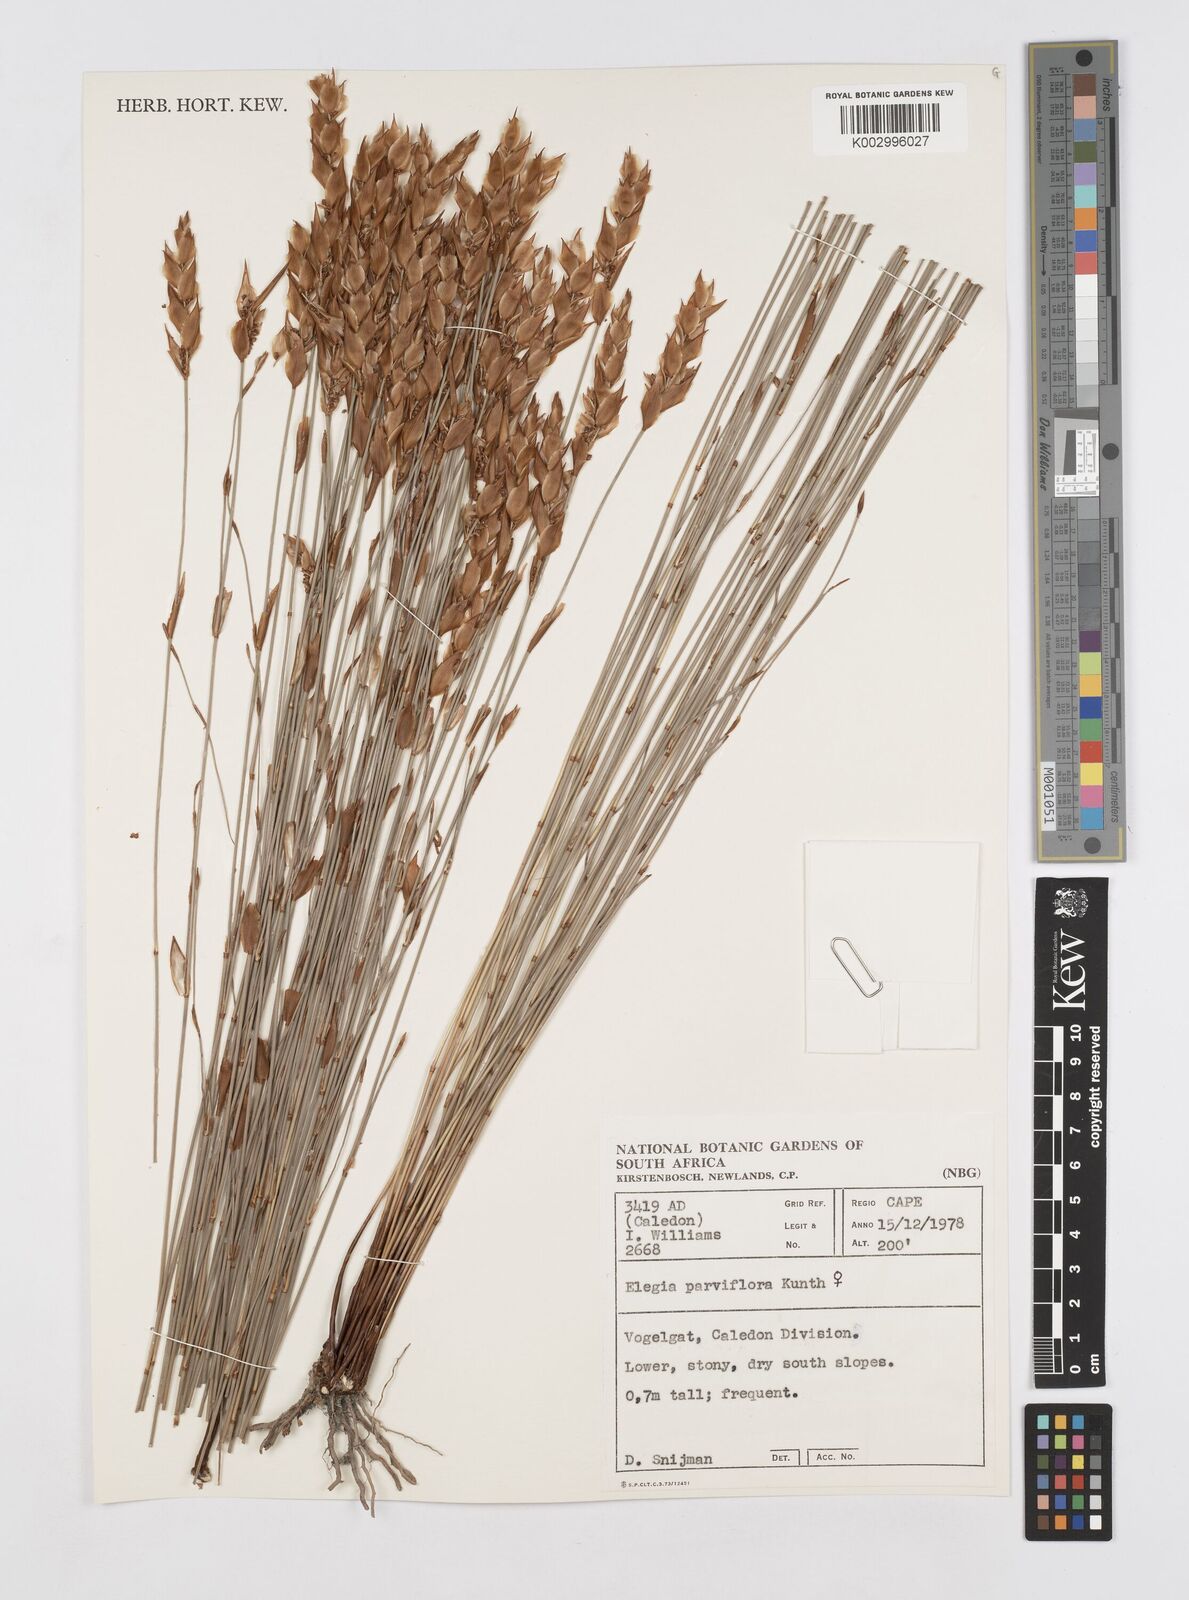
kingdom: Plantae
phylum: Tracheophyta
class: Liliopsida
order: Poales
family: Restionaceae
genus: Cannomois
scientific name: Cannomois parviflora
